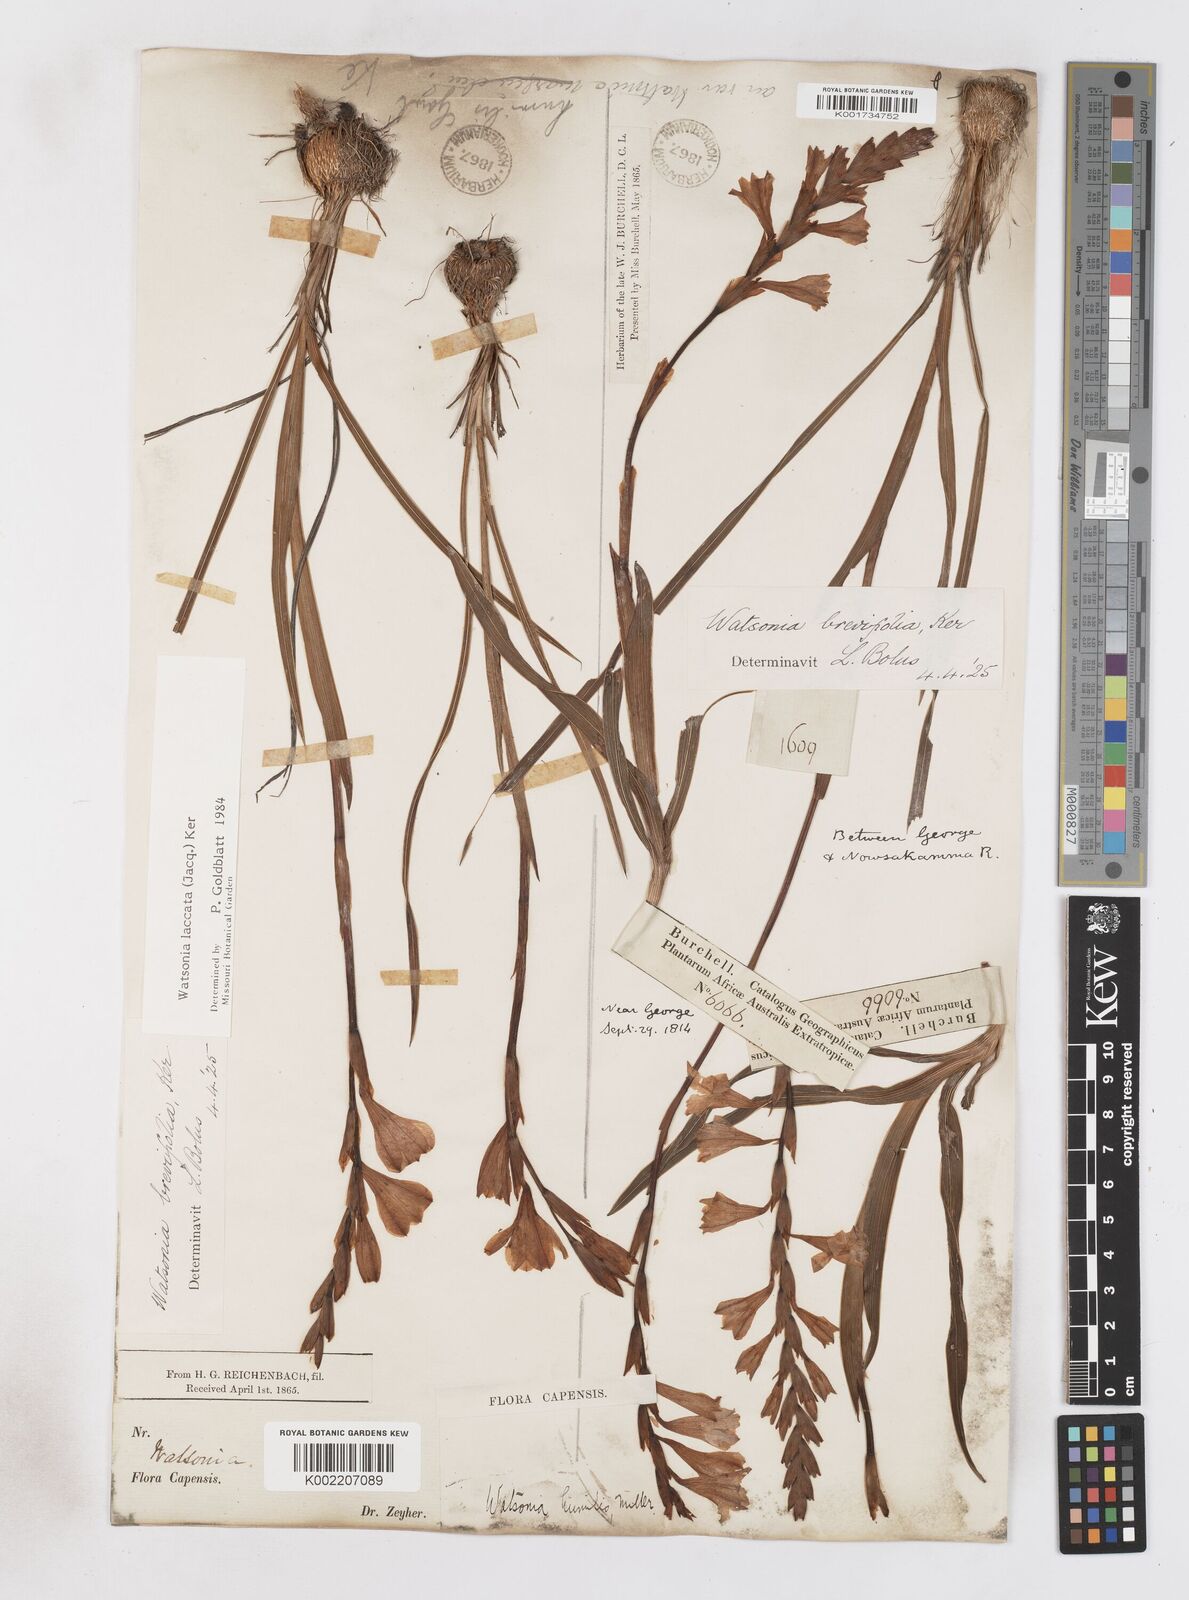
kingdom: Plantae
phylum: Tracheophyta
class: Liliopsida
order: Asparagales
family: Iridaceae
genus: Watsonia
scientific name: Watsonia laccata
